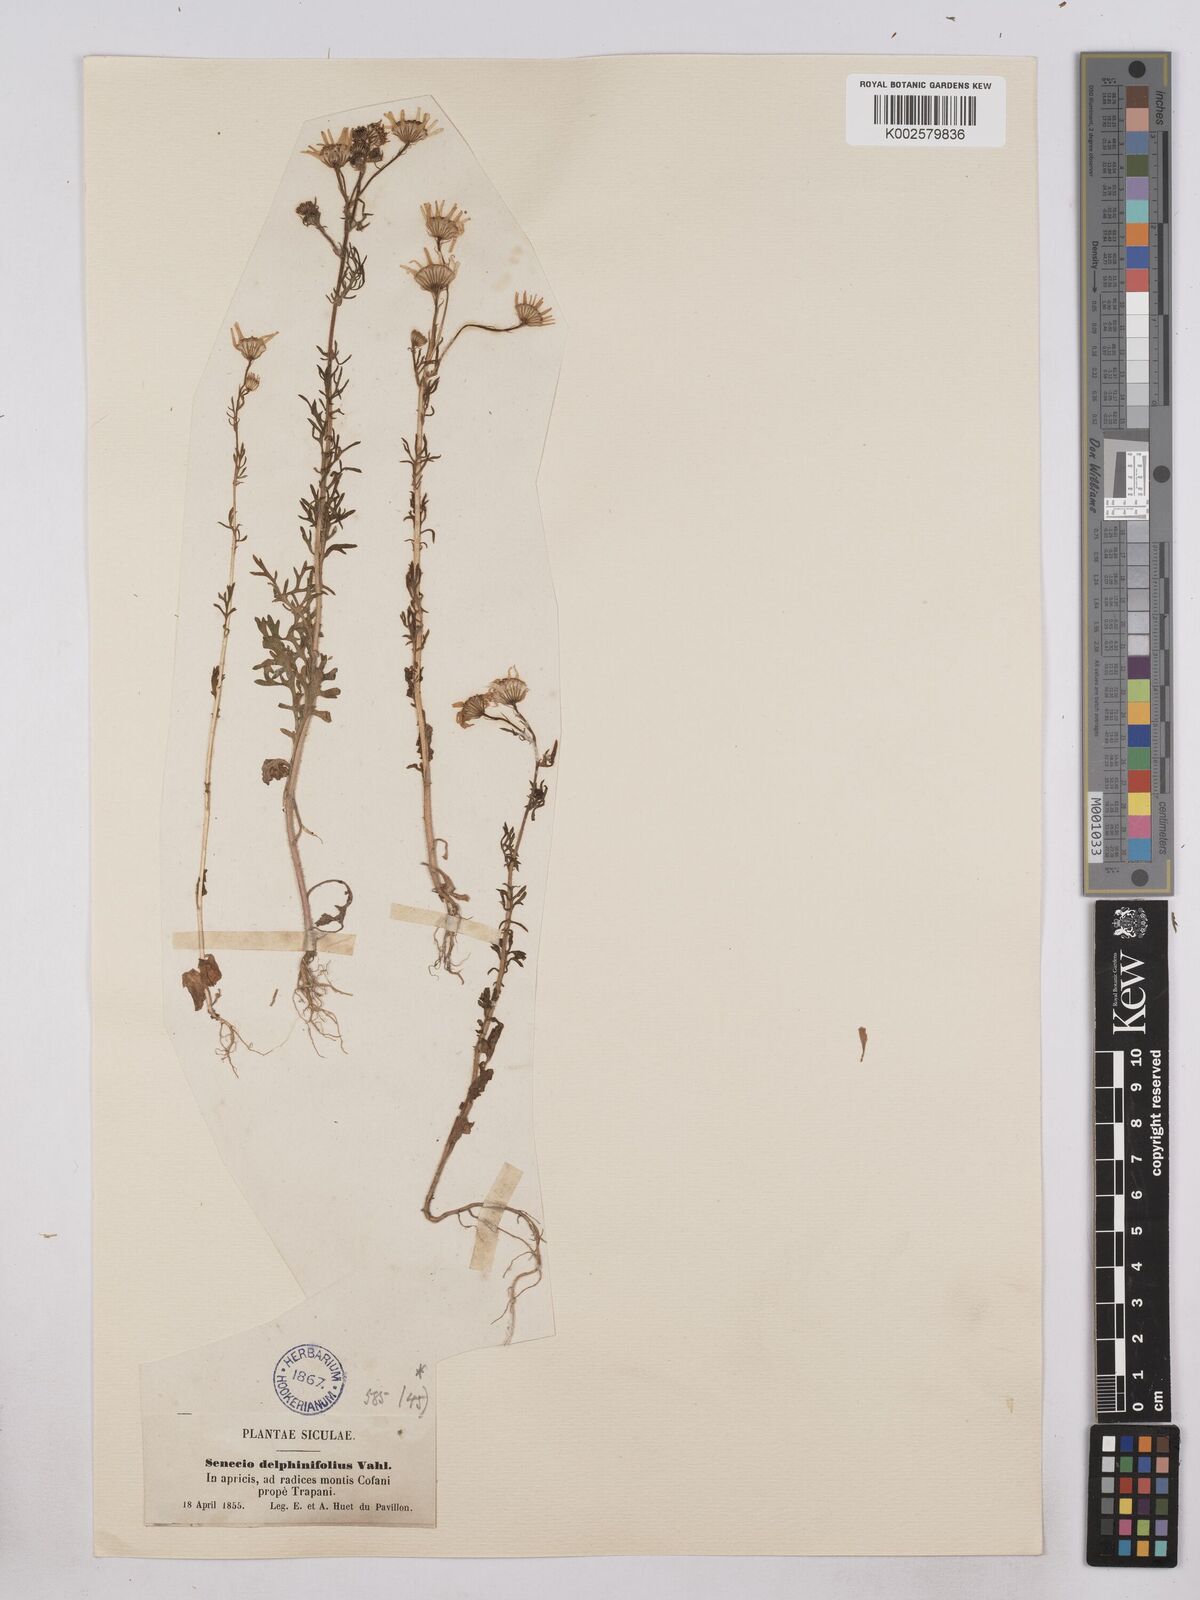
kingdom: Plantae
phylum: Tracheophyta
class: Magnoliopsida
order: Asterales
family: Asteraceae
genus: Jacobaea
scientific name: Jacobaea erucifolia
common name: Hoary ragwort
